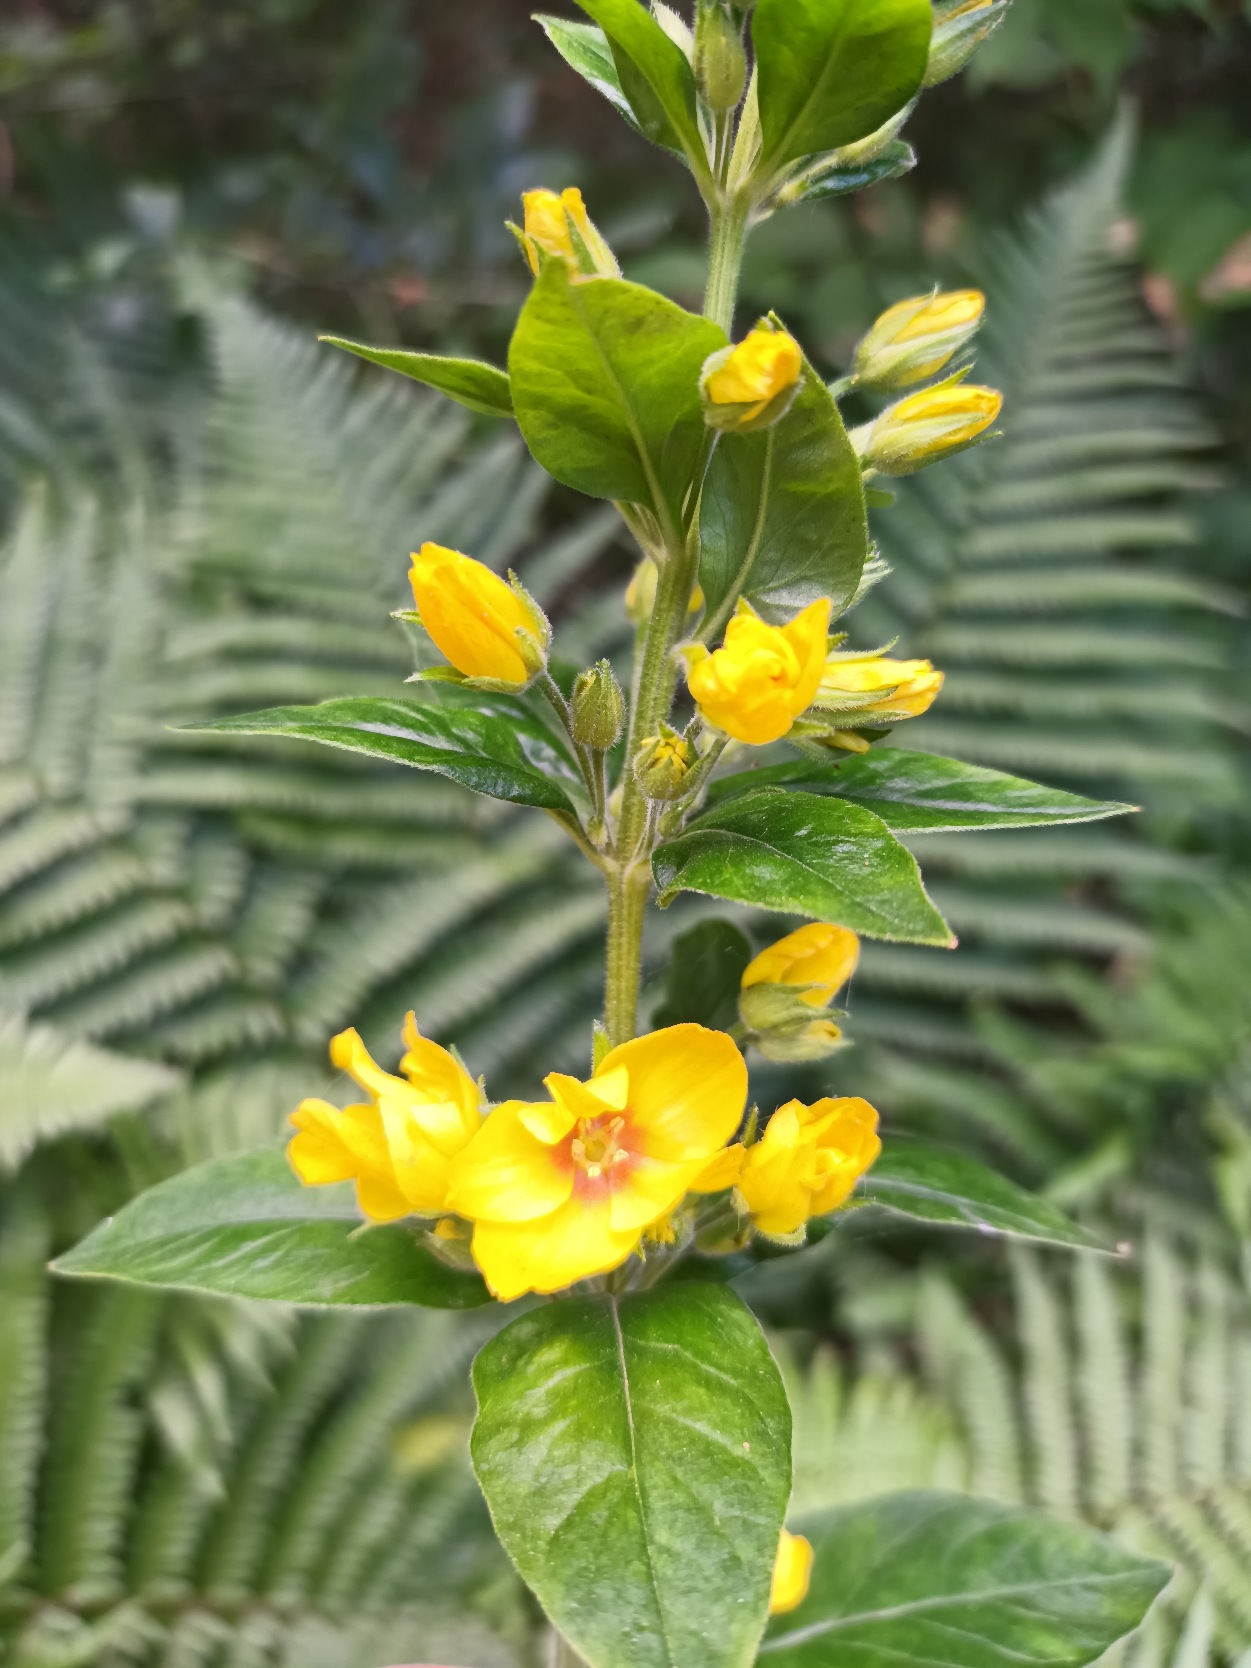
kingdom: Plantae
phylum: Tracheophyta
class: Magnoliopsida
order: Ericales
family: Primulaceae
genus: Lysimachia
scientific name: Lysimachia punctata
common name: Prikbladet fredløs
